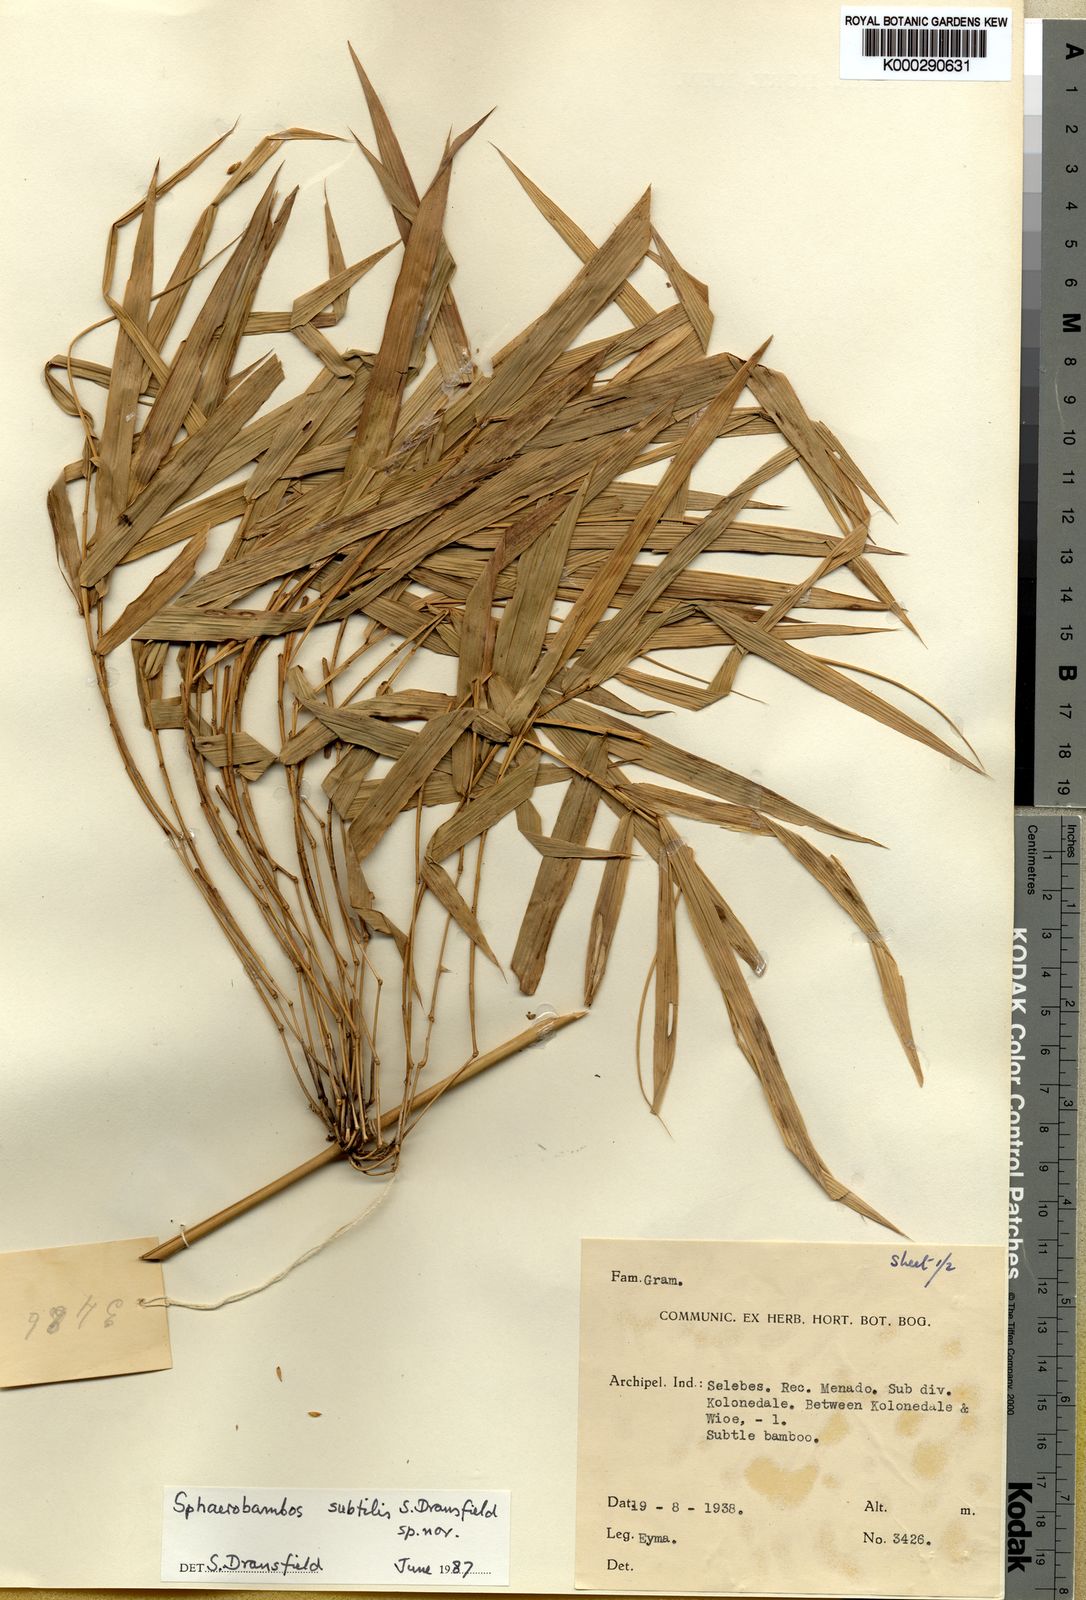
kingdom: Plantae
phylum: Tracheophyta
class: Liliopsida
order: Poales
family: Poaceae
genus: Sphaerobambos
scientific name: Sphaerobambos subtilis
